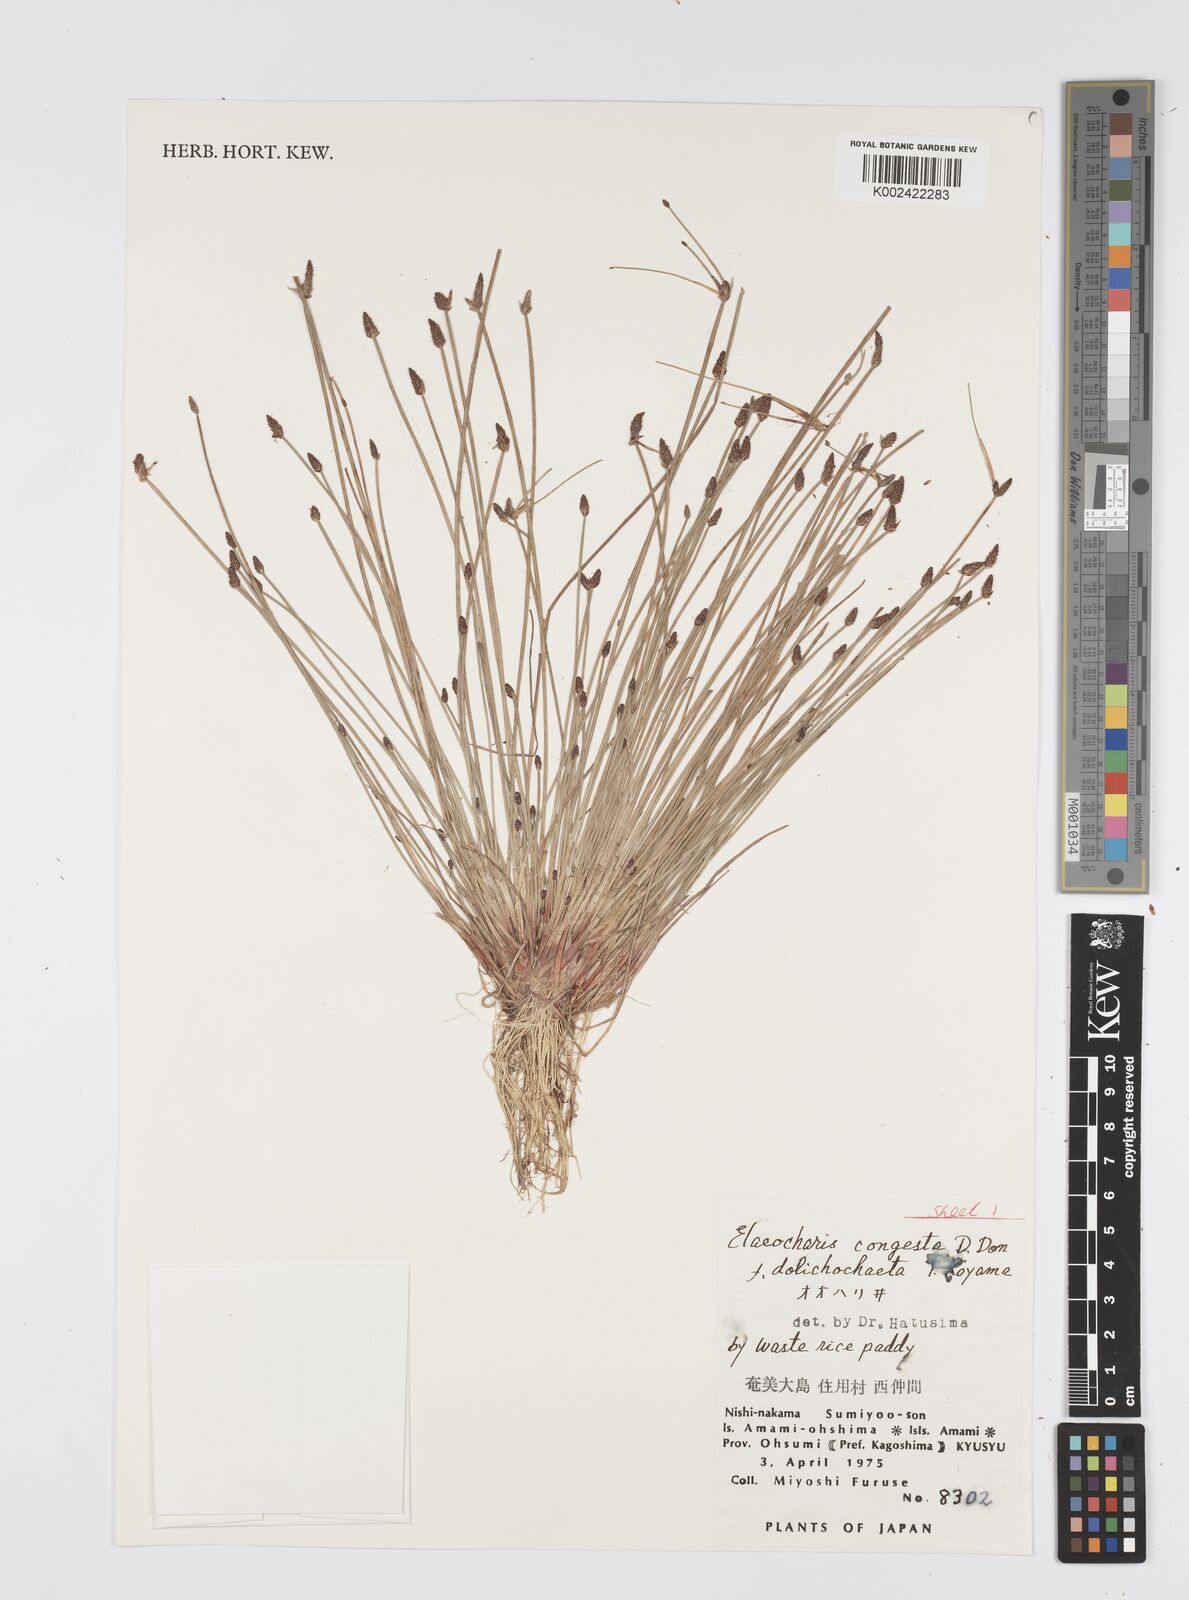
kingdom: Plantae
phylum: Tracheophyta
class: Liliopsida
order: Poales
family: Cyperaceae
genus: Eleocharis
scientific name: Eleocharis congesta
